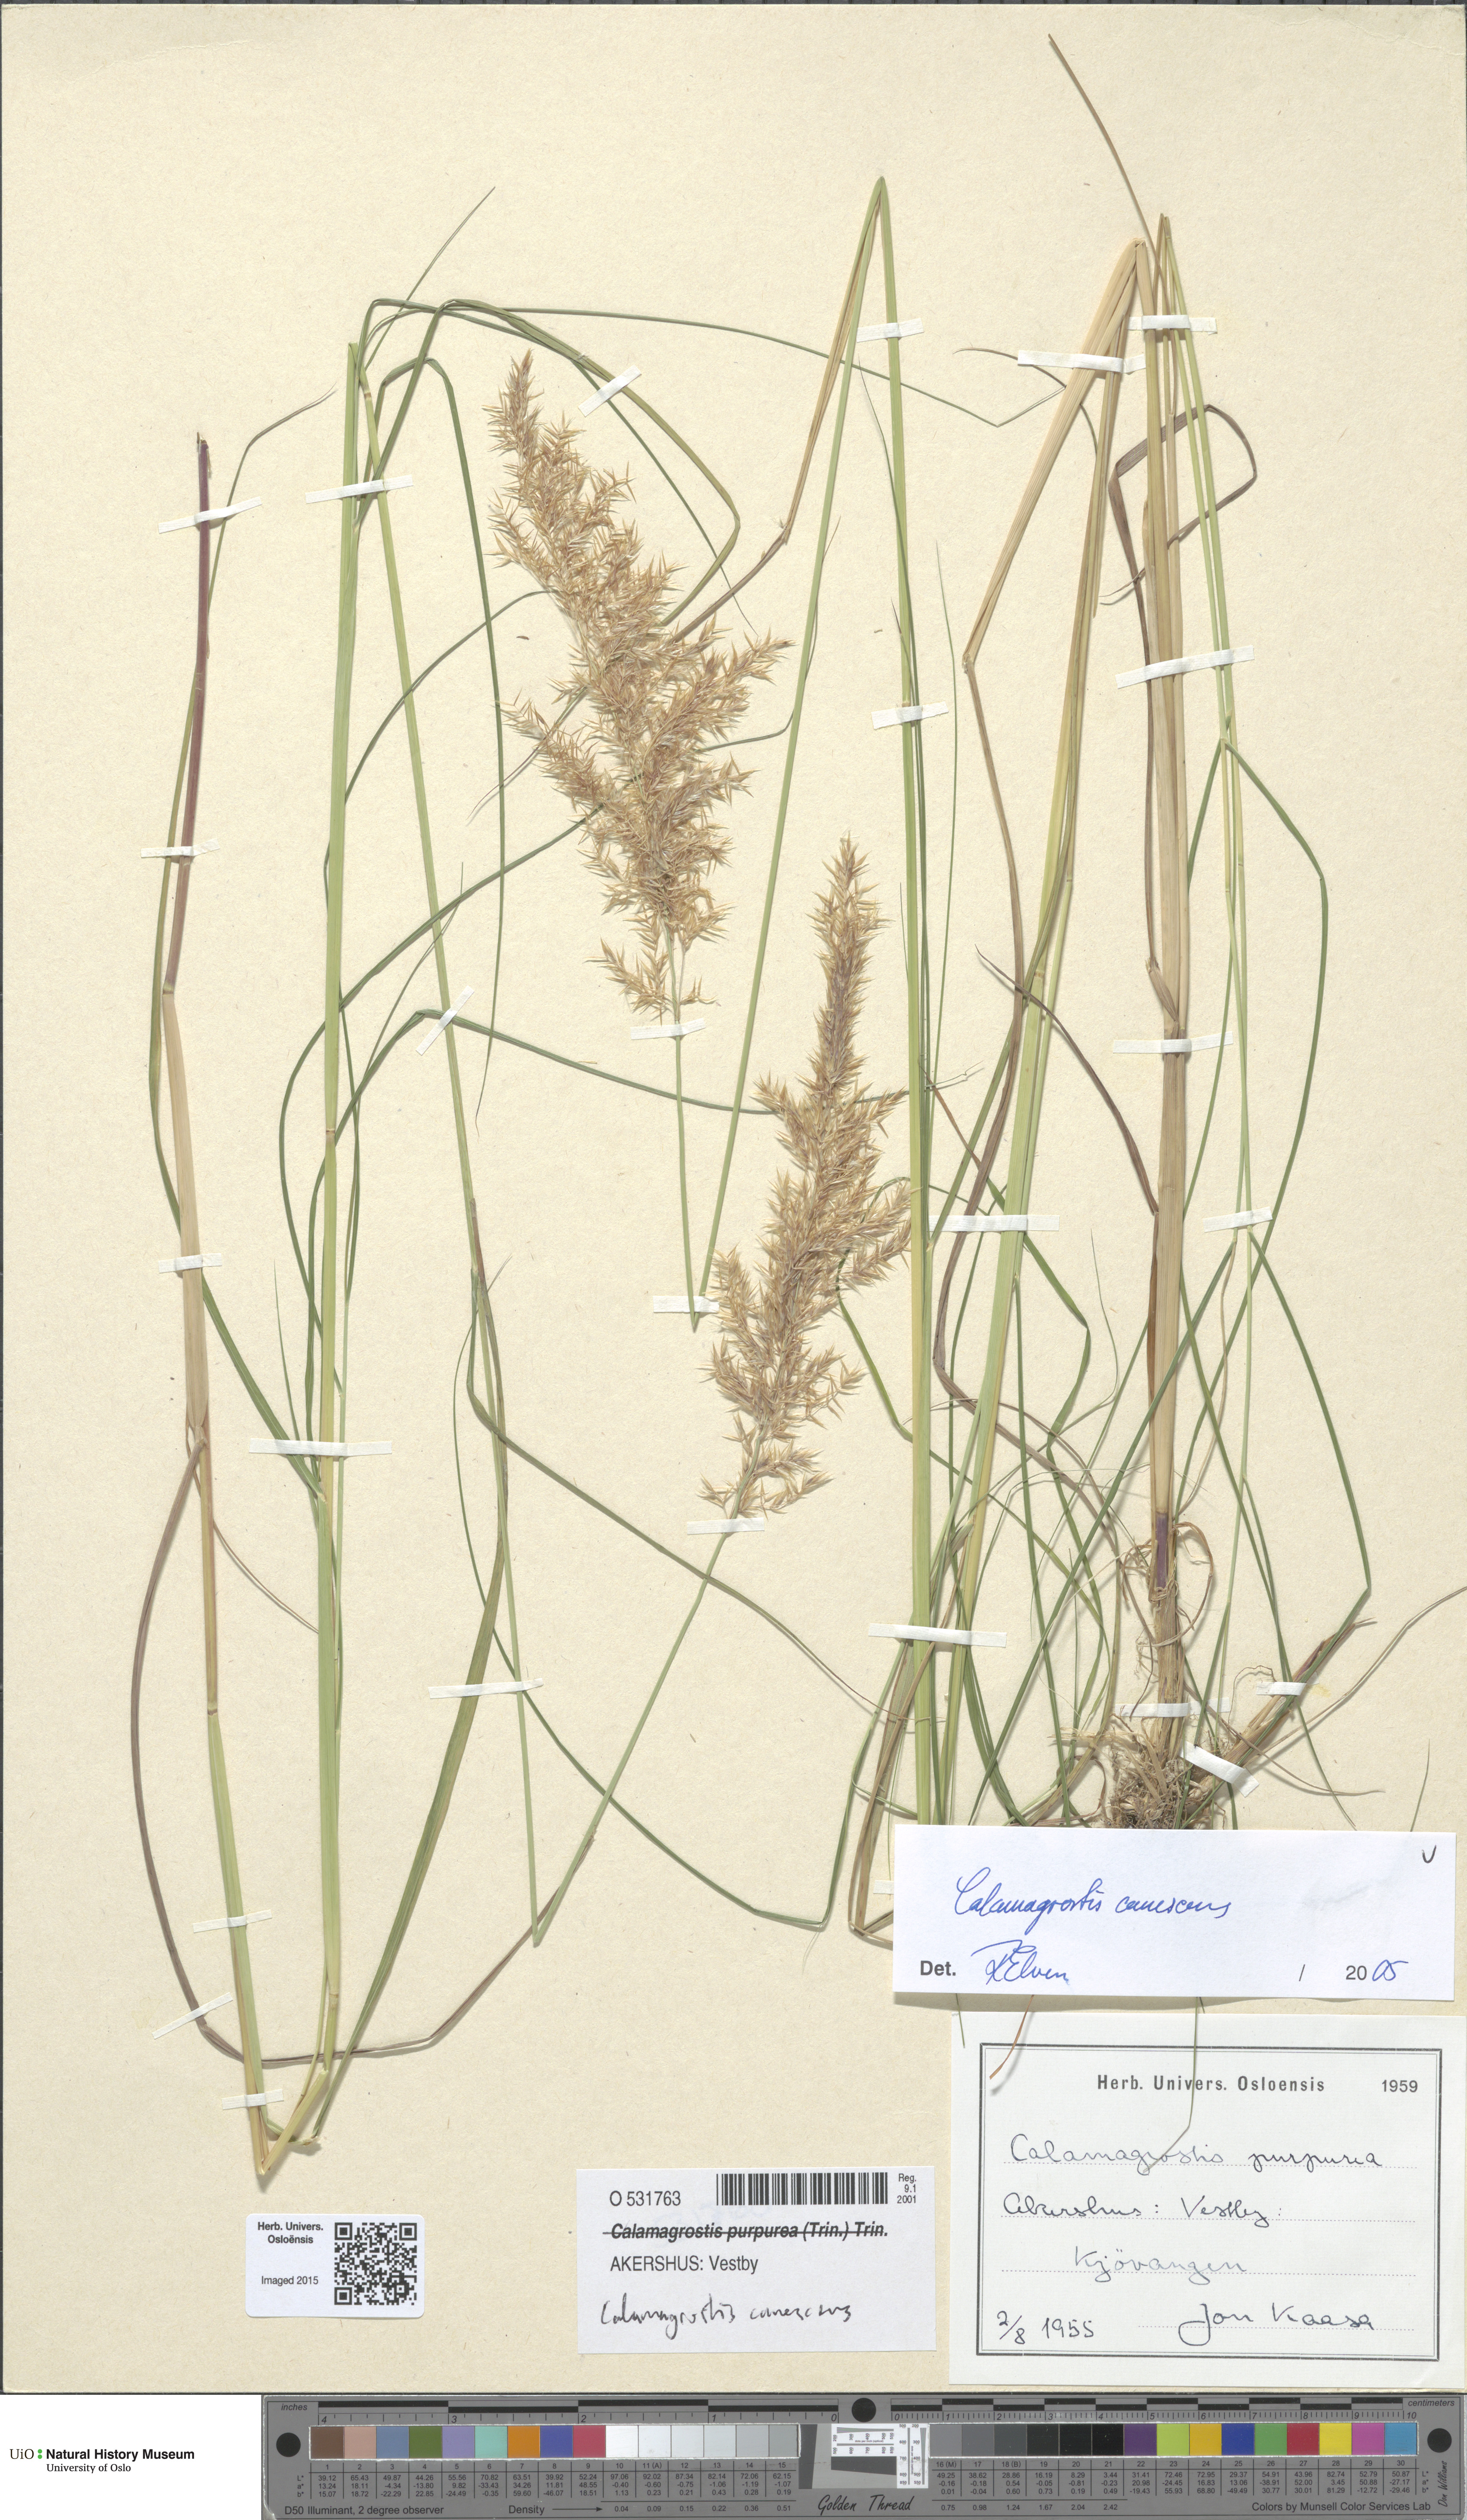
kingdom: Plantae
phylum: Tracheophyta
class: Liliopsida
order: Poales
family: Poaceae
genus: Calamagrostis
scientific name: Calamagrostis canescens
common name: Purple small-reed
